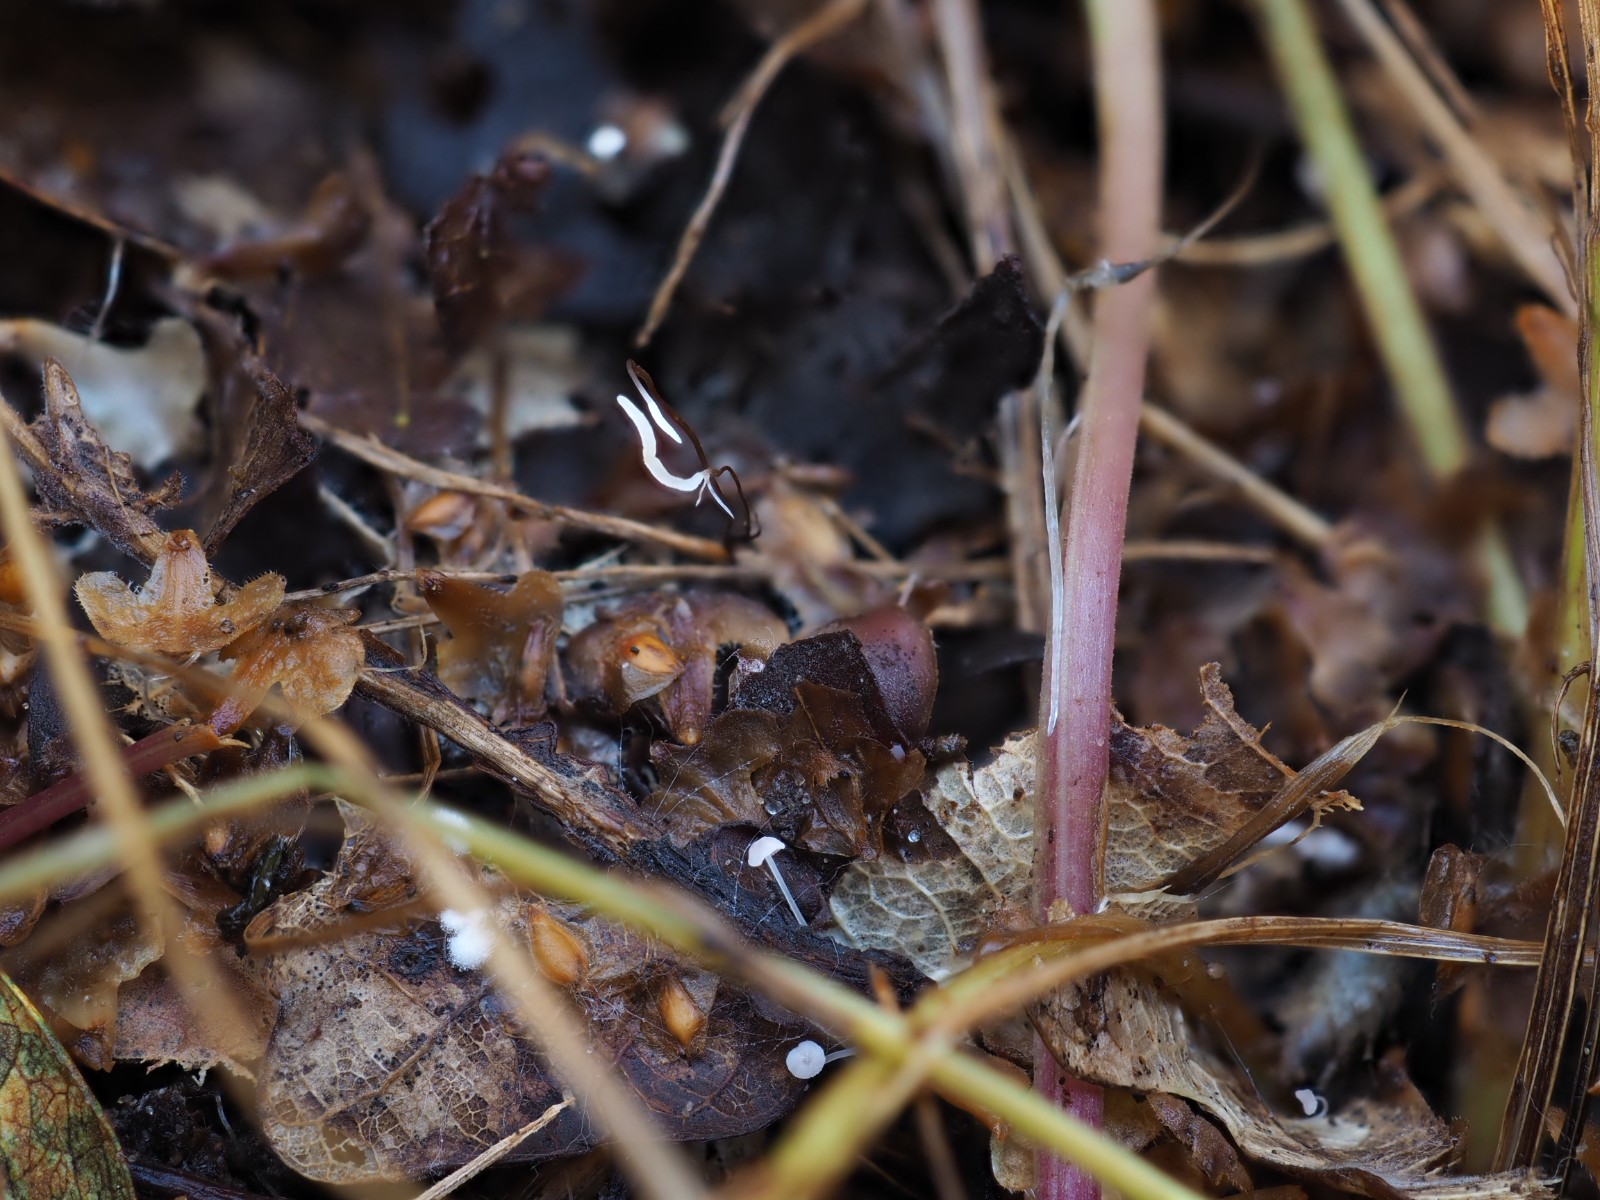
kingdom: Fungi
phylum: Basidiomycota
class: Agaricomycetes
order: Agaricales
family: Typhulaceae
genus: Typhula
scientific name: Typhula erythropus
